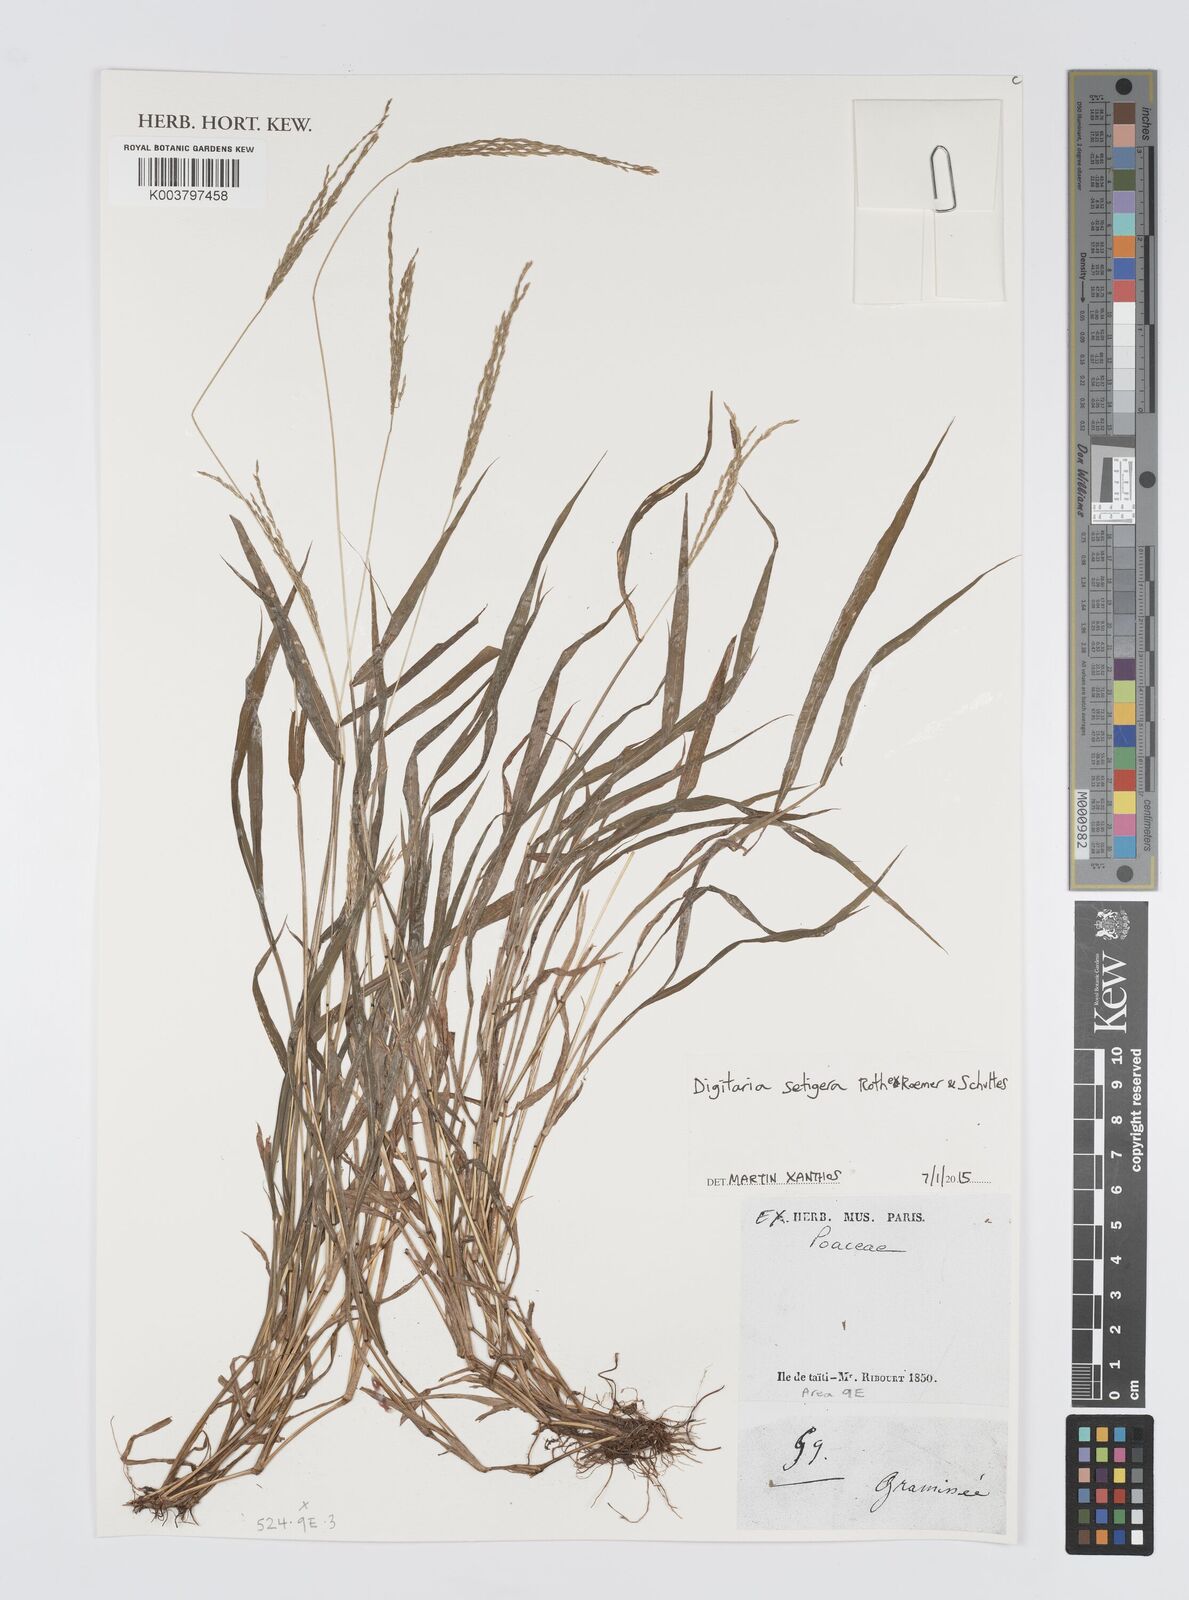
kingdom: Plantae
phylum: Tracheophyta
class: Liliopsida
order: Poales
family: Poaceae
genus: Digitaria
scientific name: Digitaria setigera
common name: East indian crabgrass
